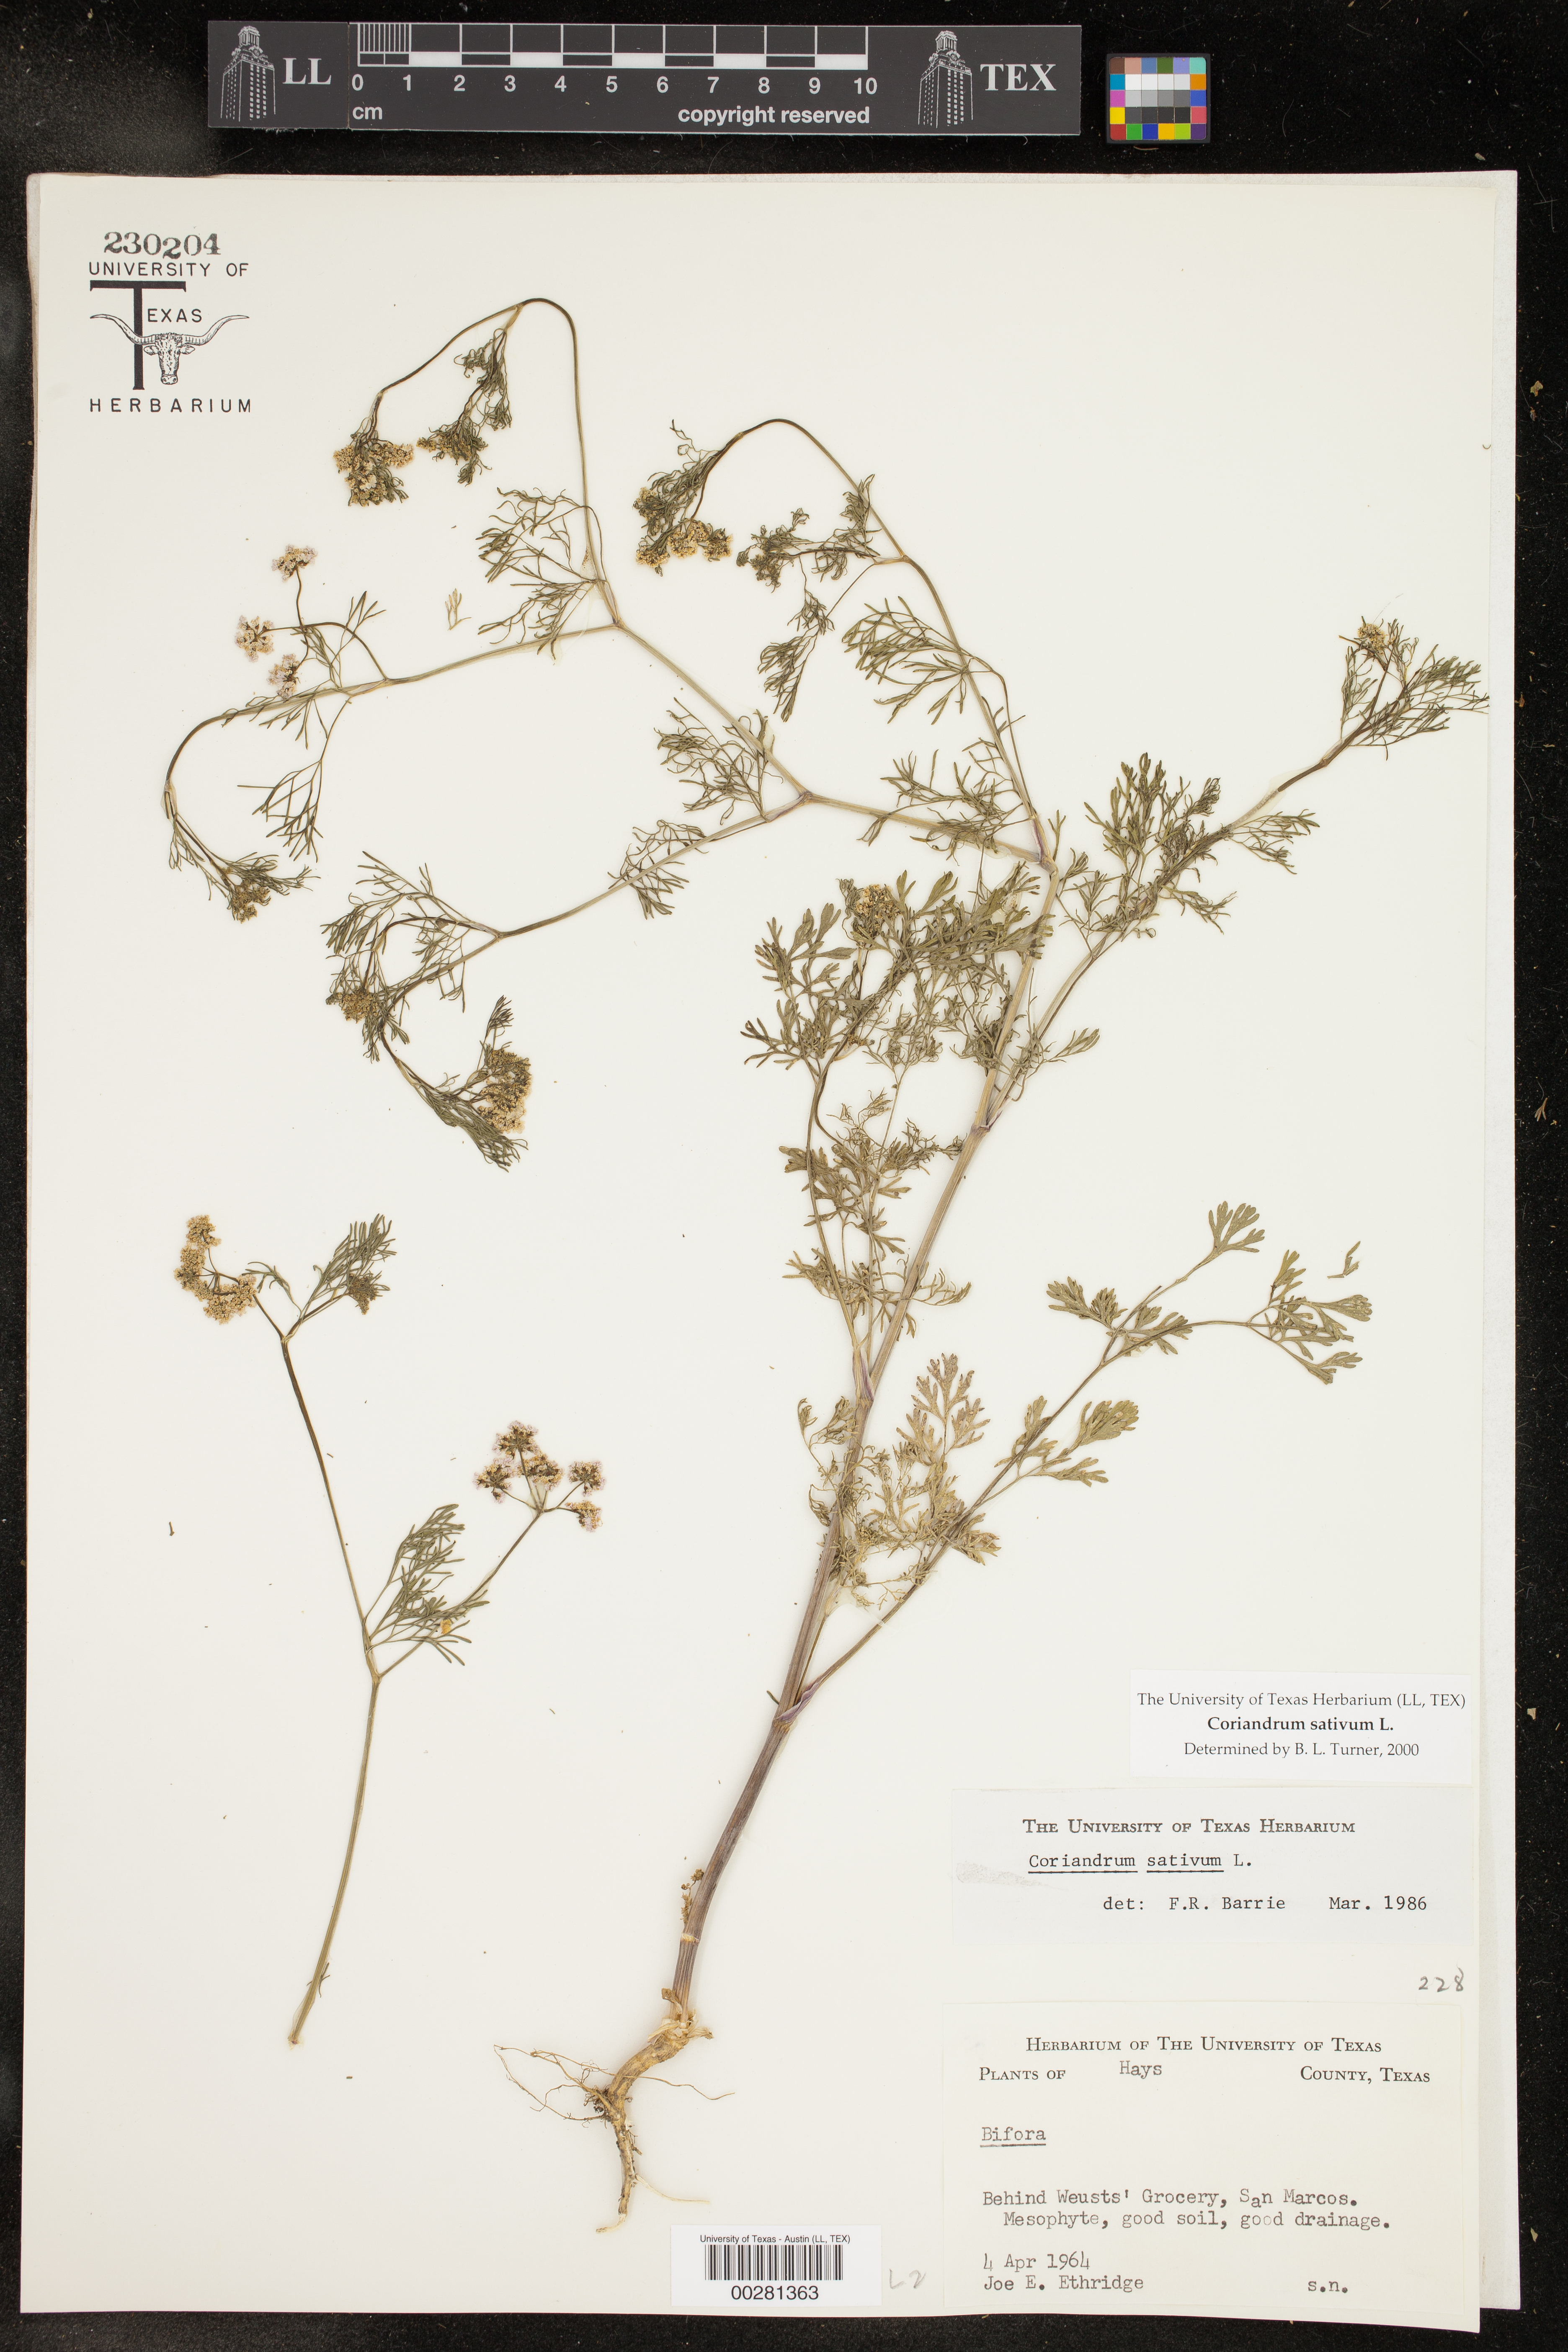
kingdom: Plantae
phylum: Tracheophyta
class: Magnoliopsida
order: Apiales
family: Apiaceae
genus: Coriandrum
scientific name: Coriandrum sativum
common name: Coriander
